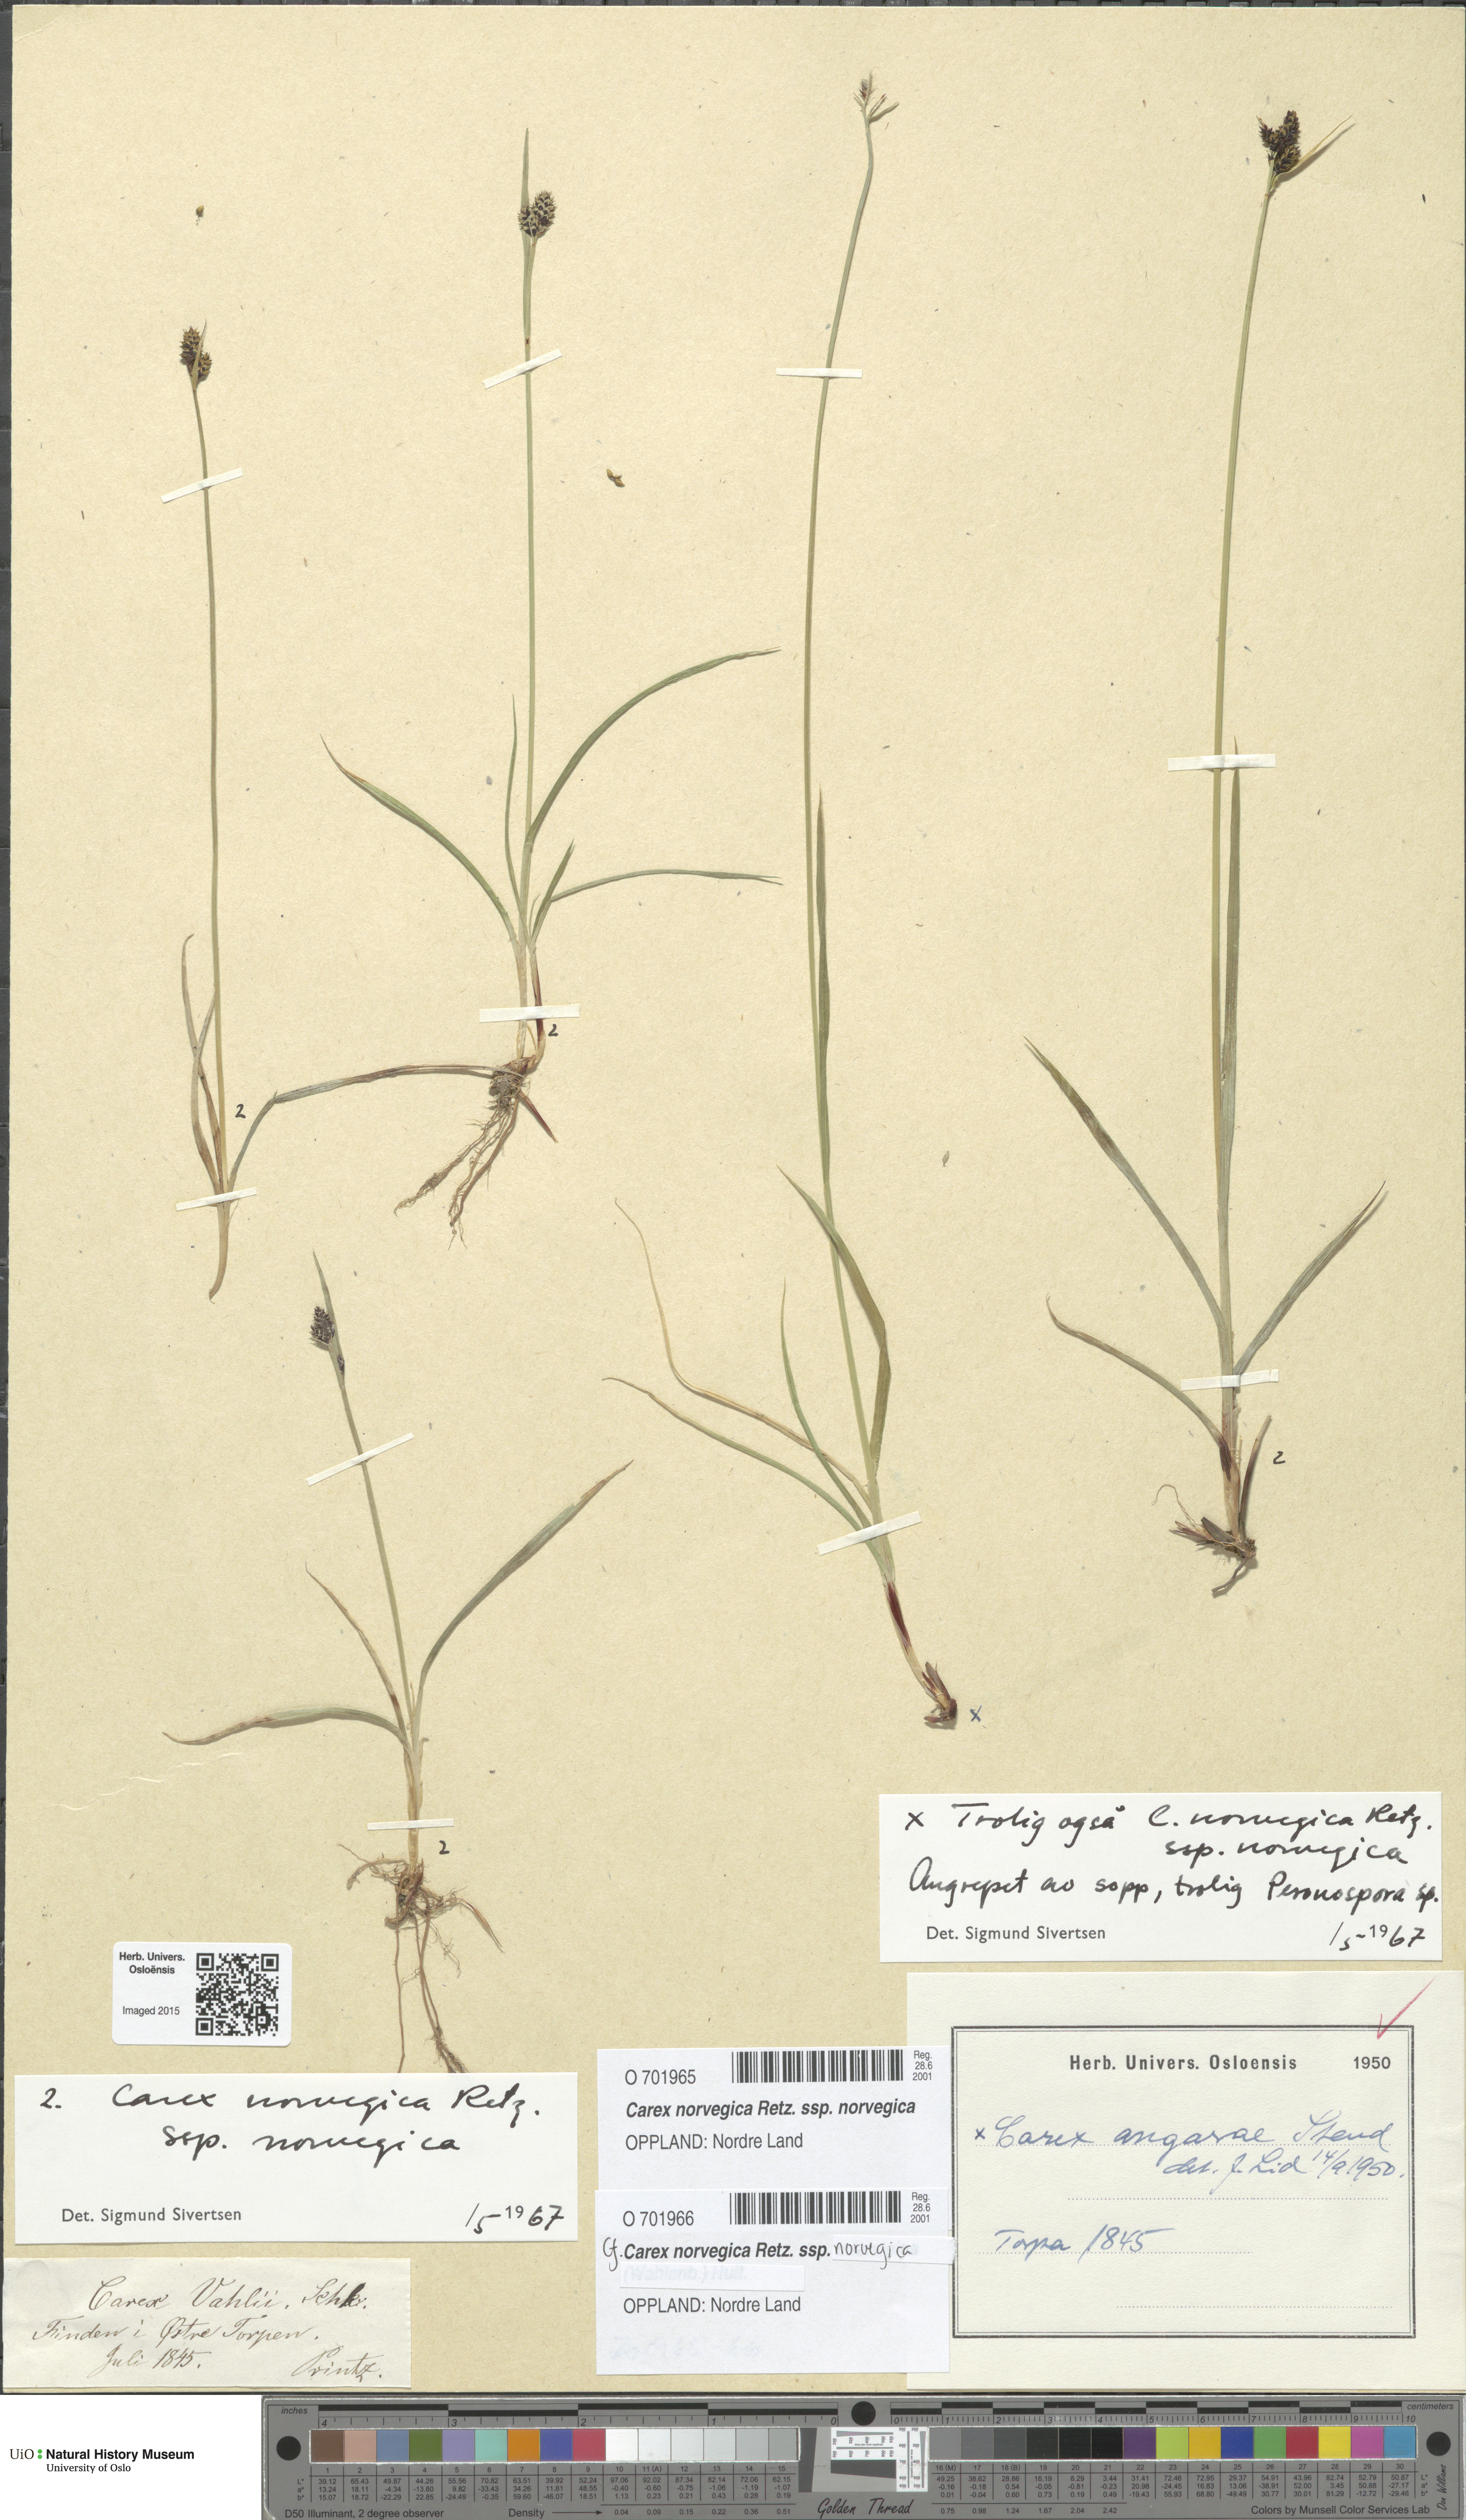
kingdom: Plantae
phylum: Tracheophyta
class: Liliopsida
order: Poales
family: Cyperaceae
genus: Carex
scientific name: Carex norvegica
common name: Close-headed alpine-sedge
